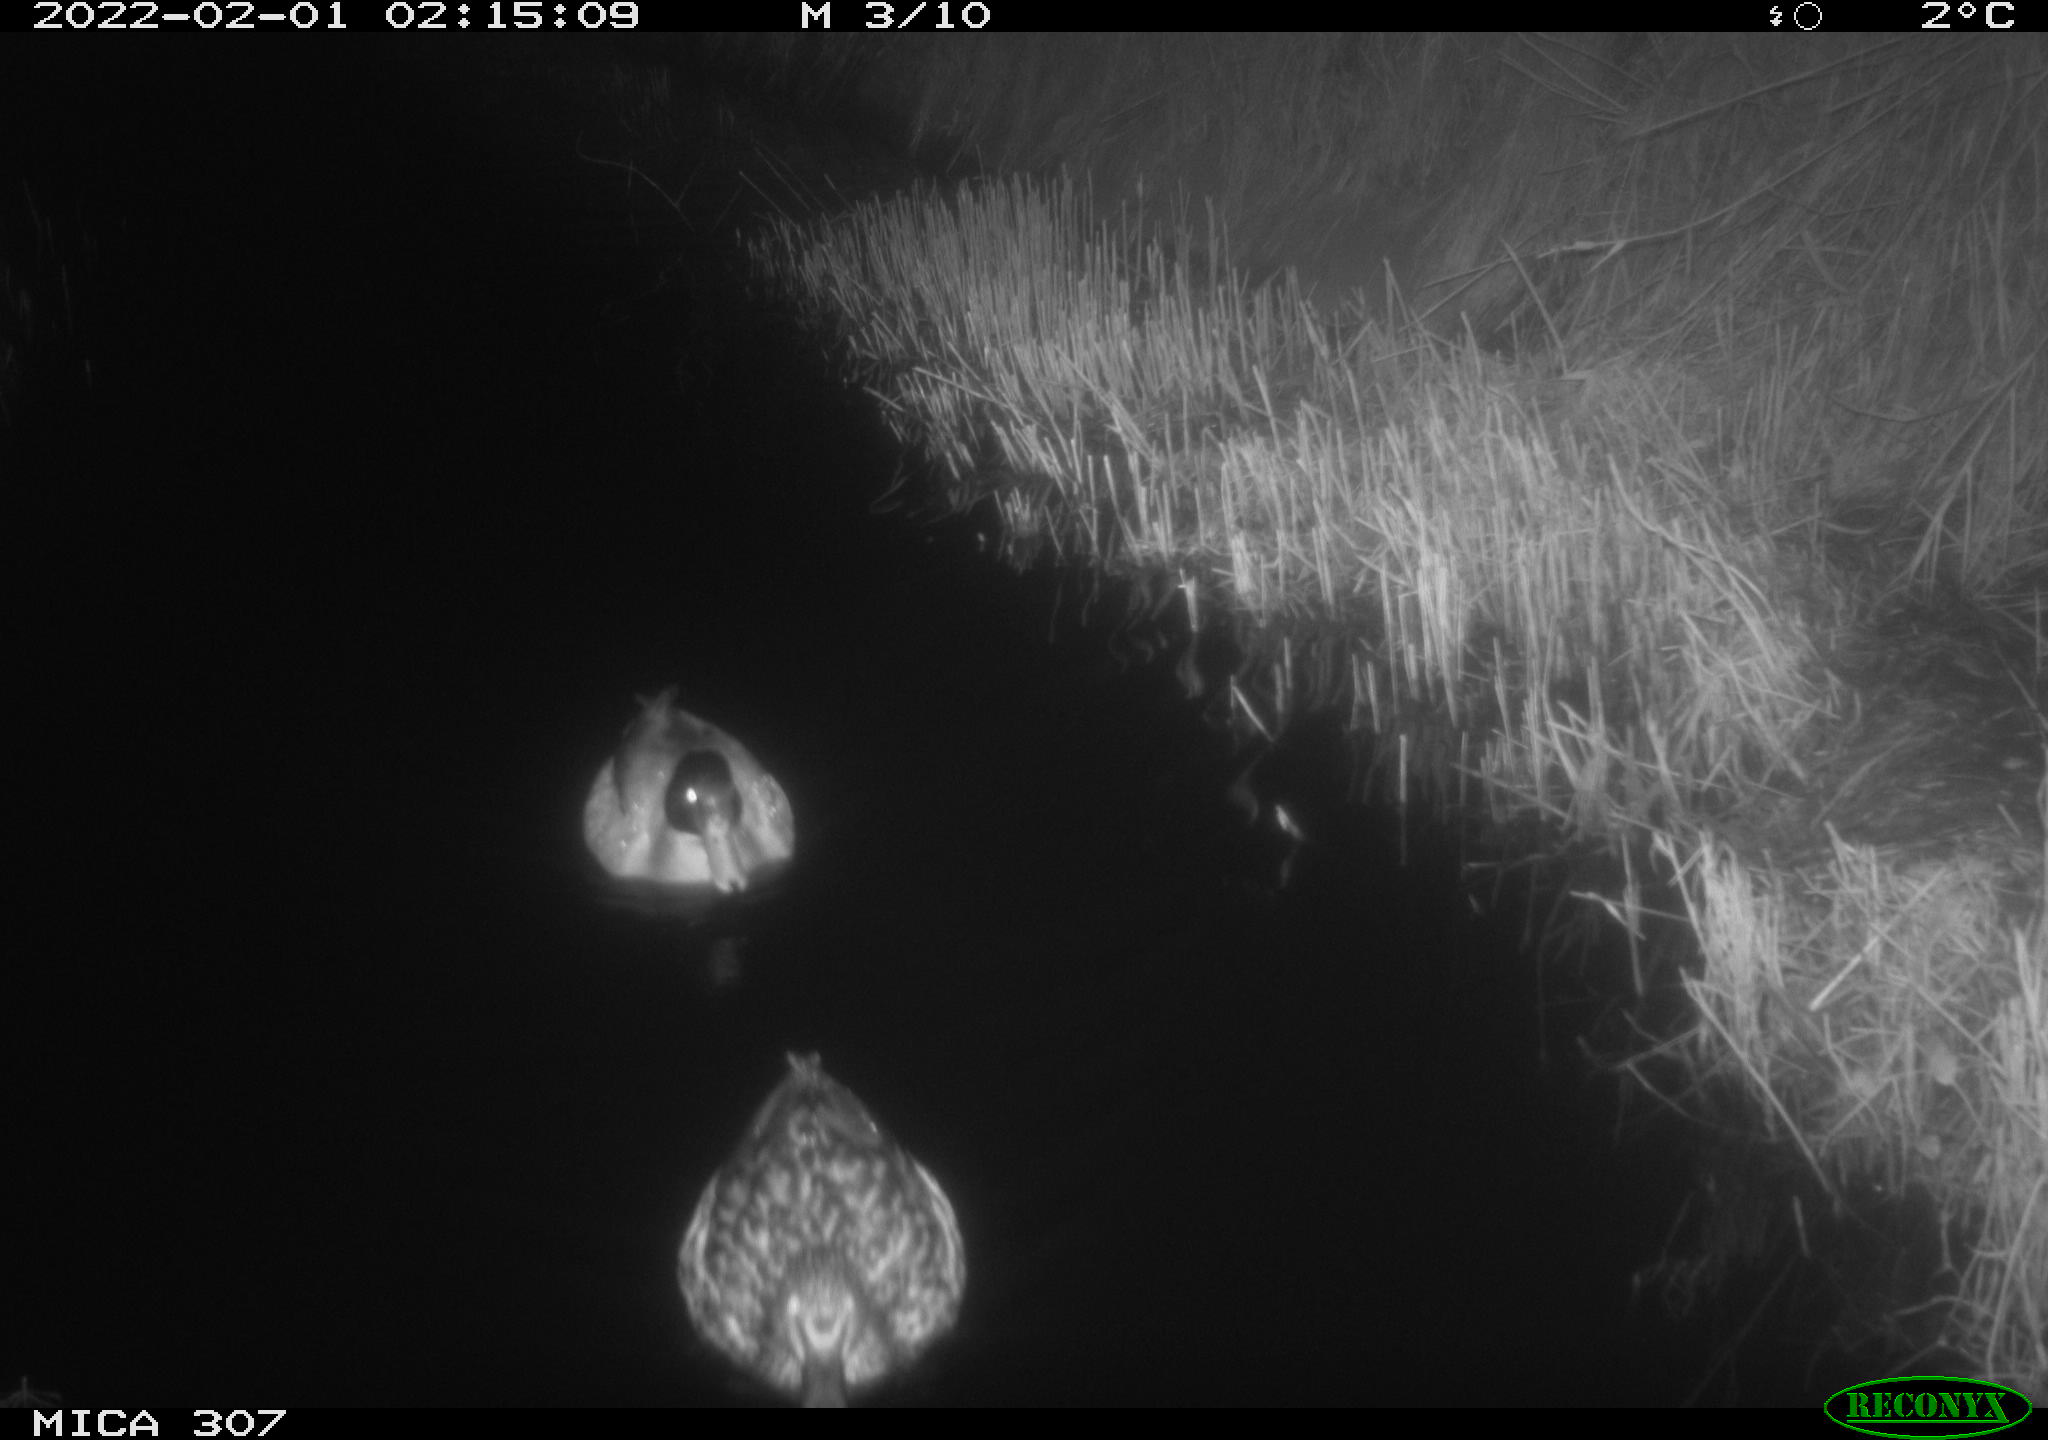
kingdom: Animalia
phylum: Chordata
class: Aves
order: Anseriformes
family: Anatidae
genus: Anas
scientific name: Anas
